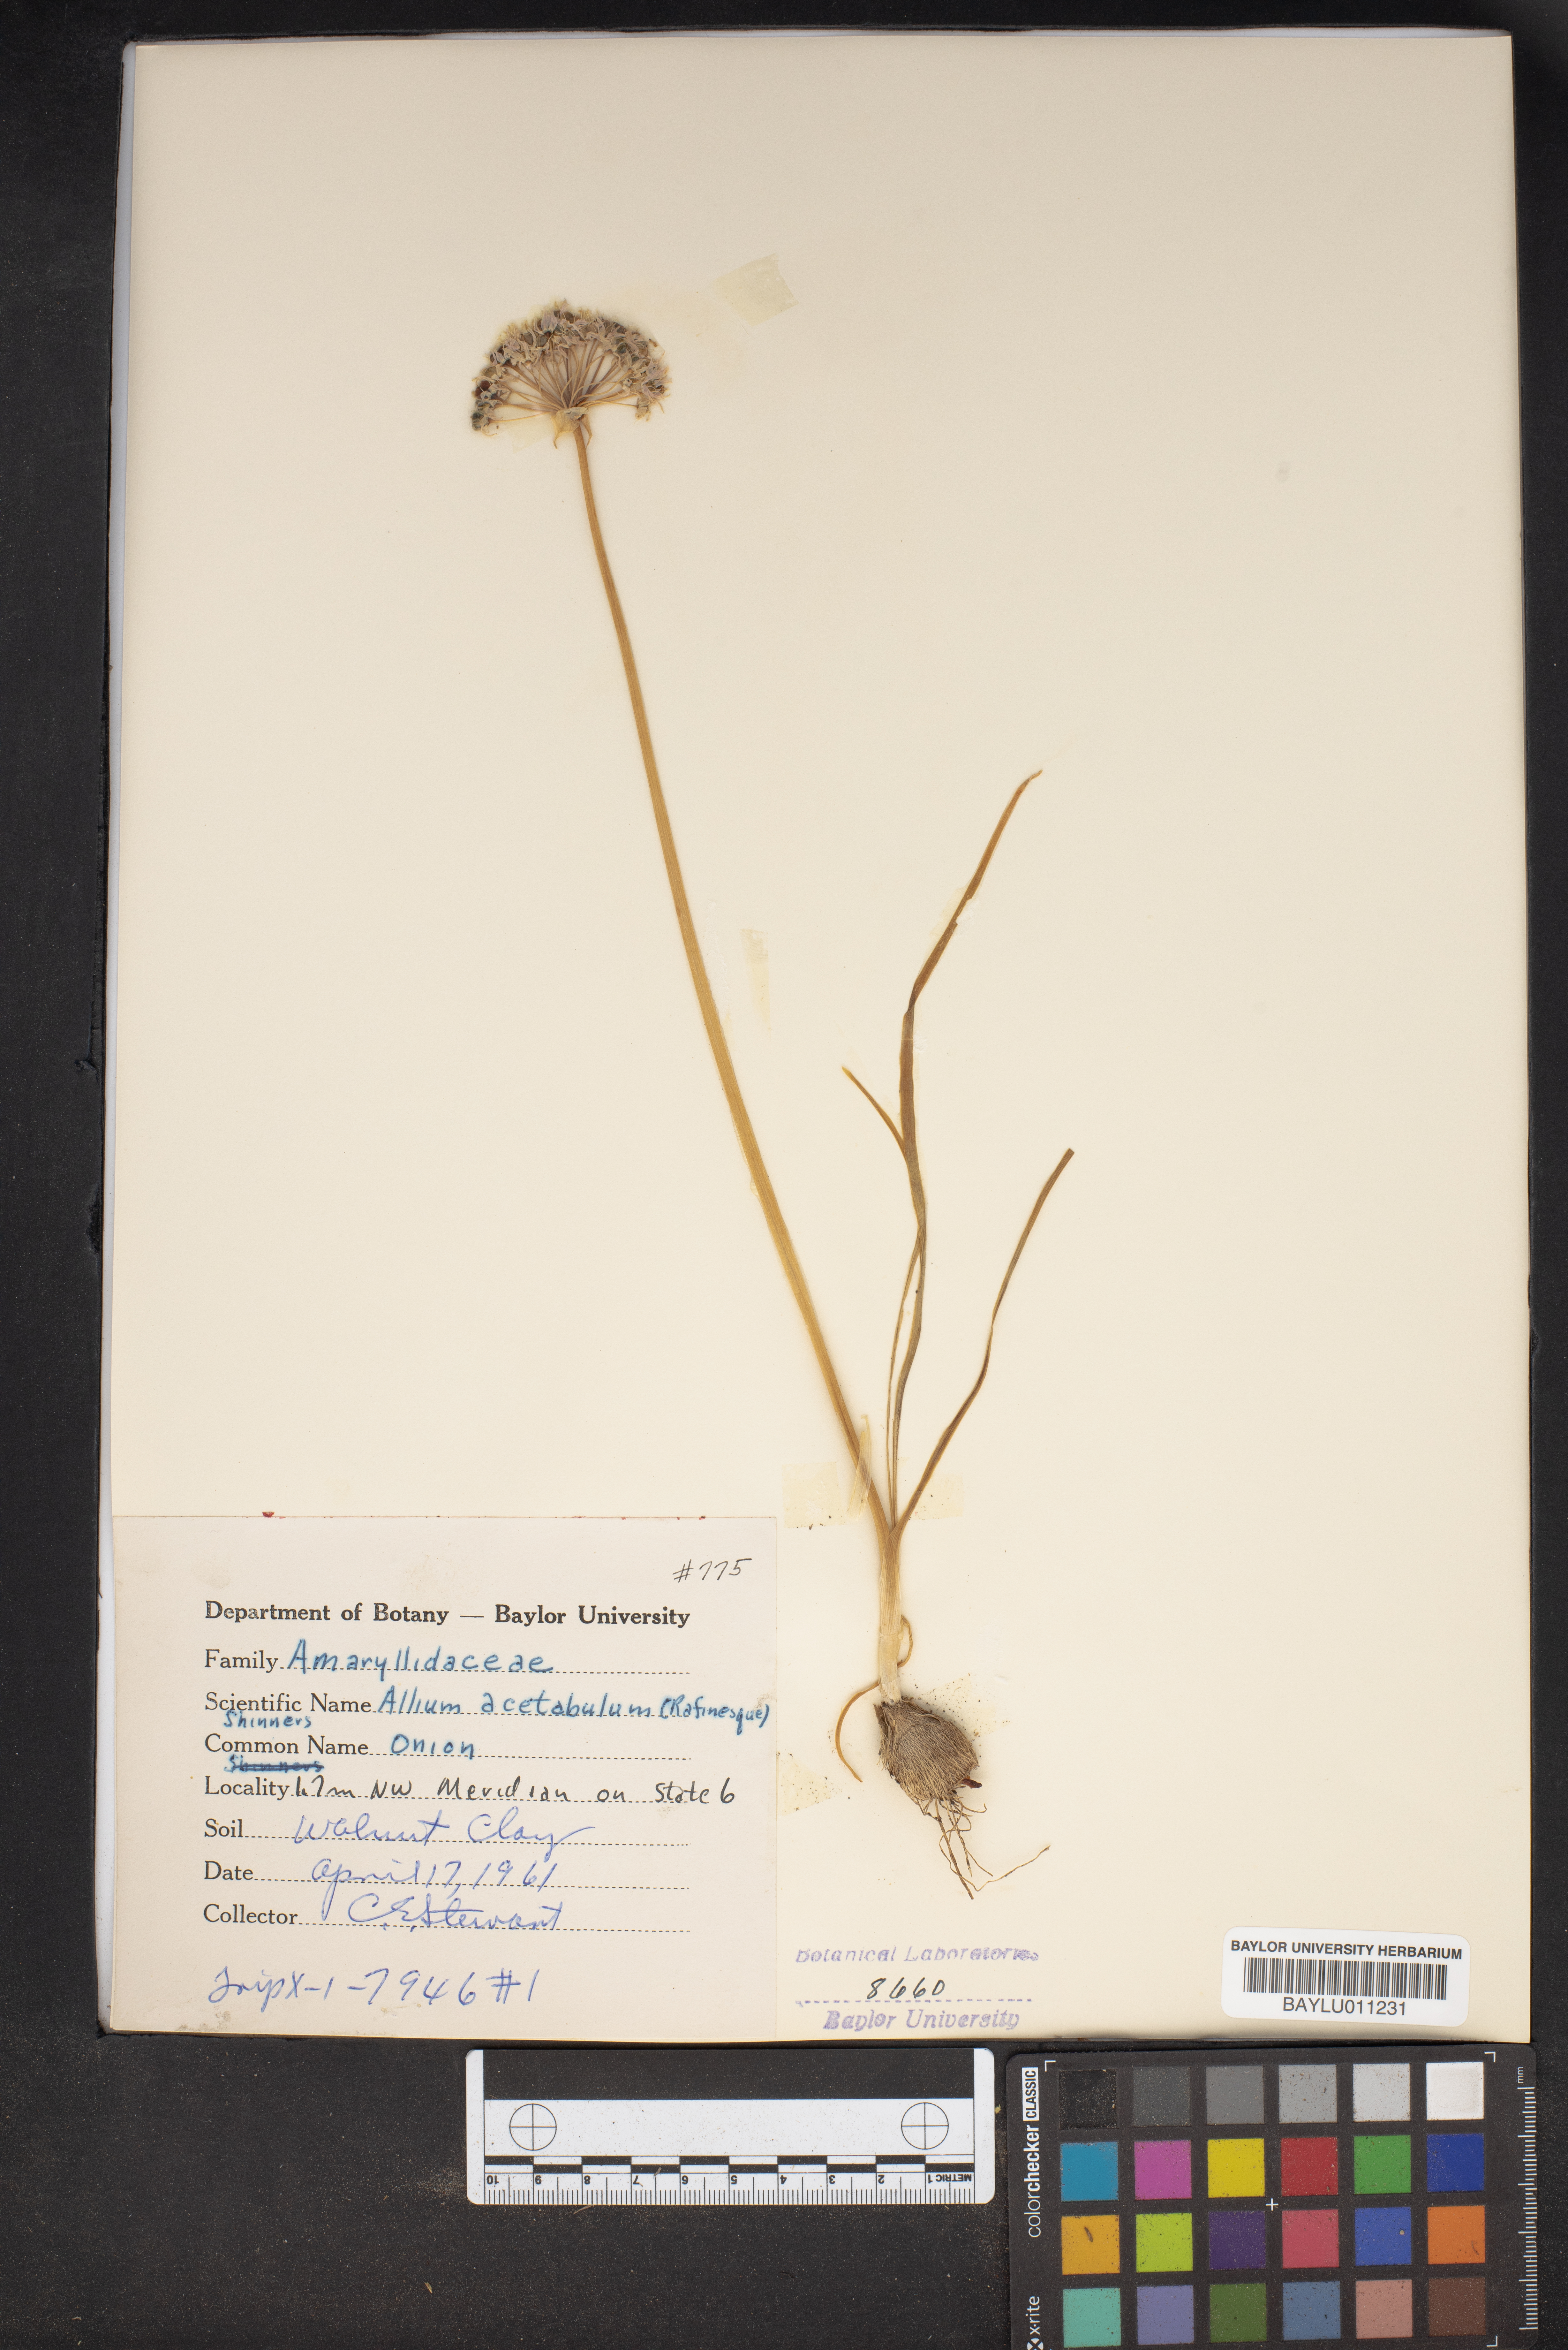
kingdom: Plantae
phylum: Tracheophyta
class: Liliopsida
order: Asparagales
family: Amaryllidaceae
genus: Allium
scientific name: Allium canadense
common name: Meadow garlic
